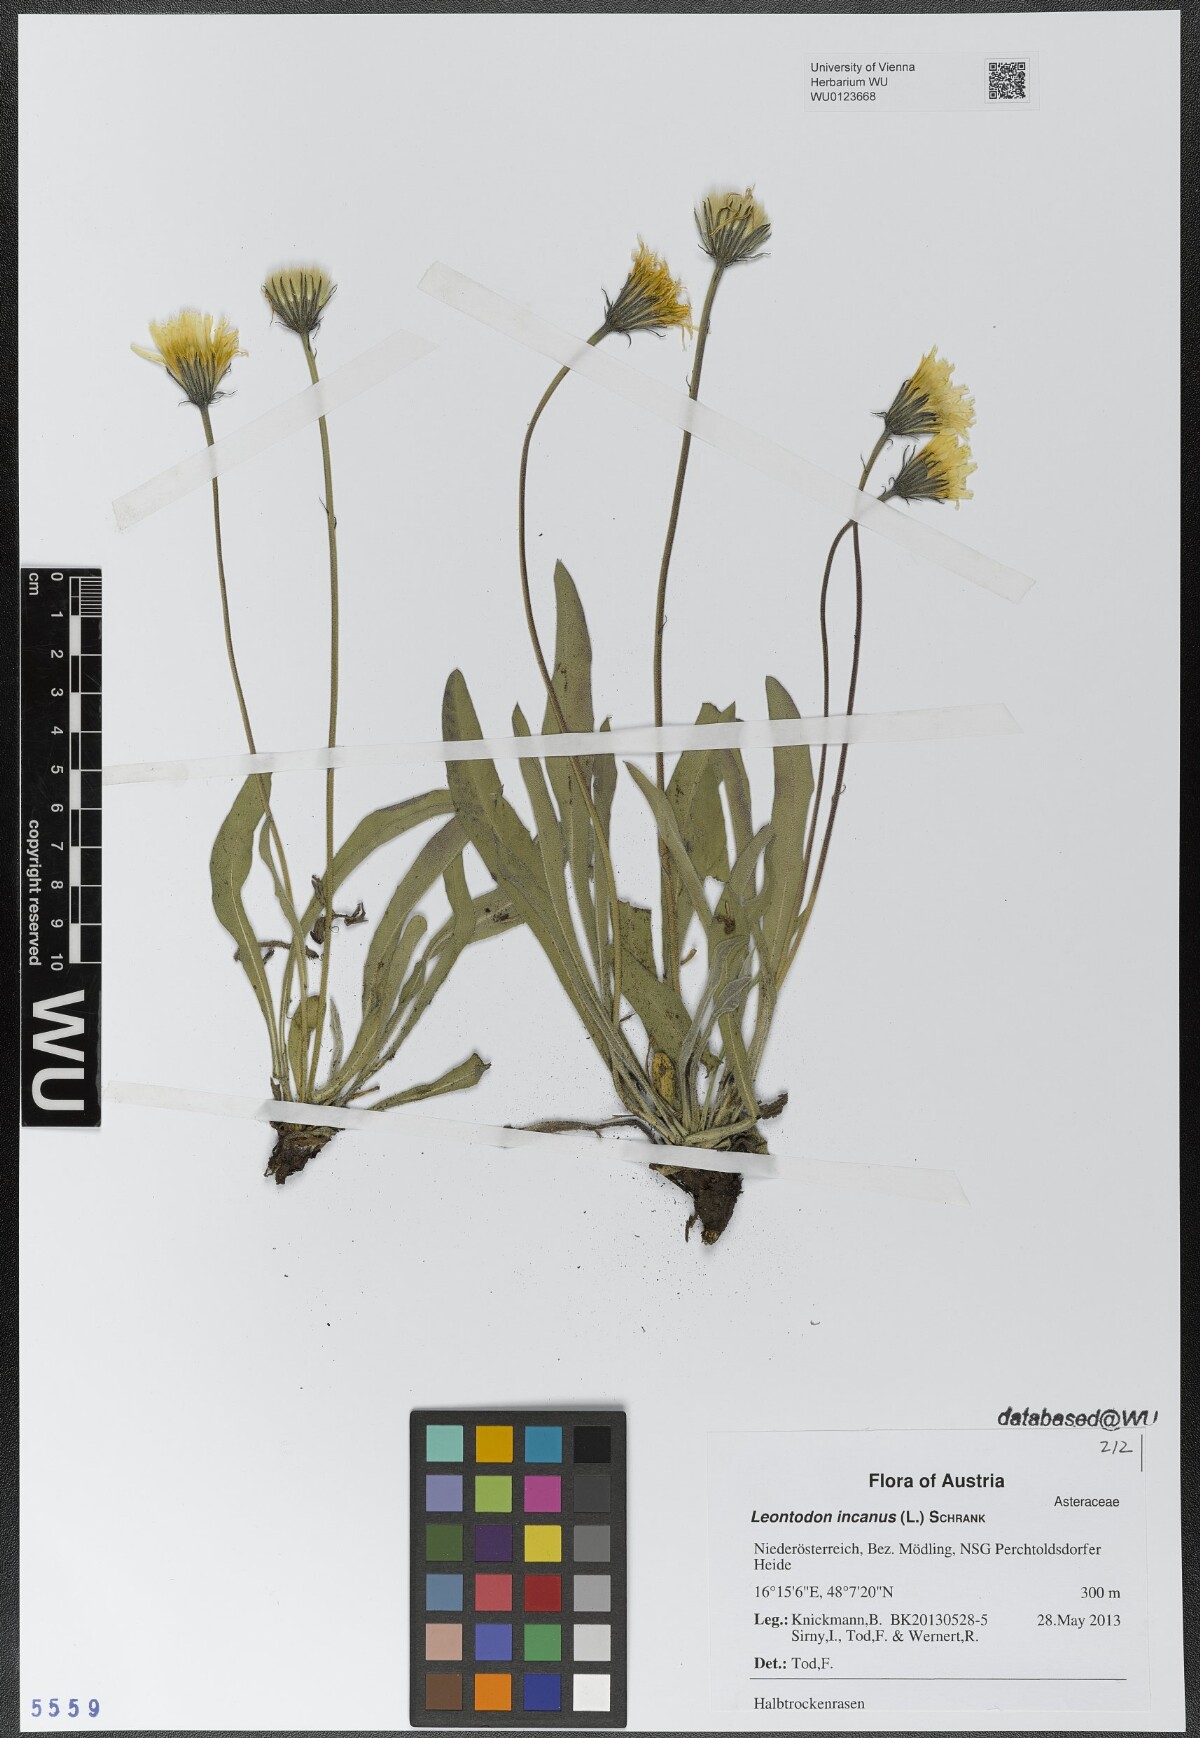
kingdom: Plantae
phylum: Tracheophyta
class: Magnoliopsida
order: Asterales
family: Asteraceae
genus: Leontodon
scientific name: Leontodon incanus
